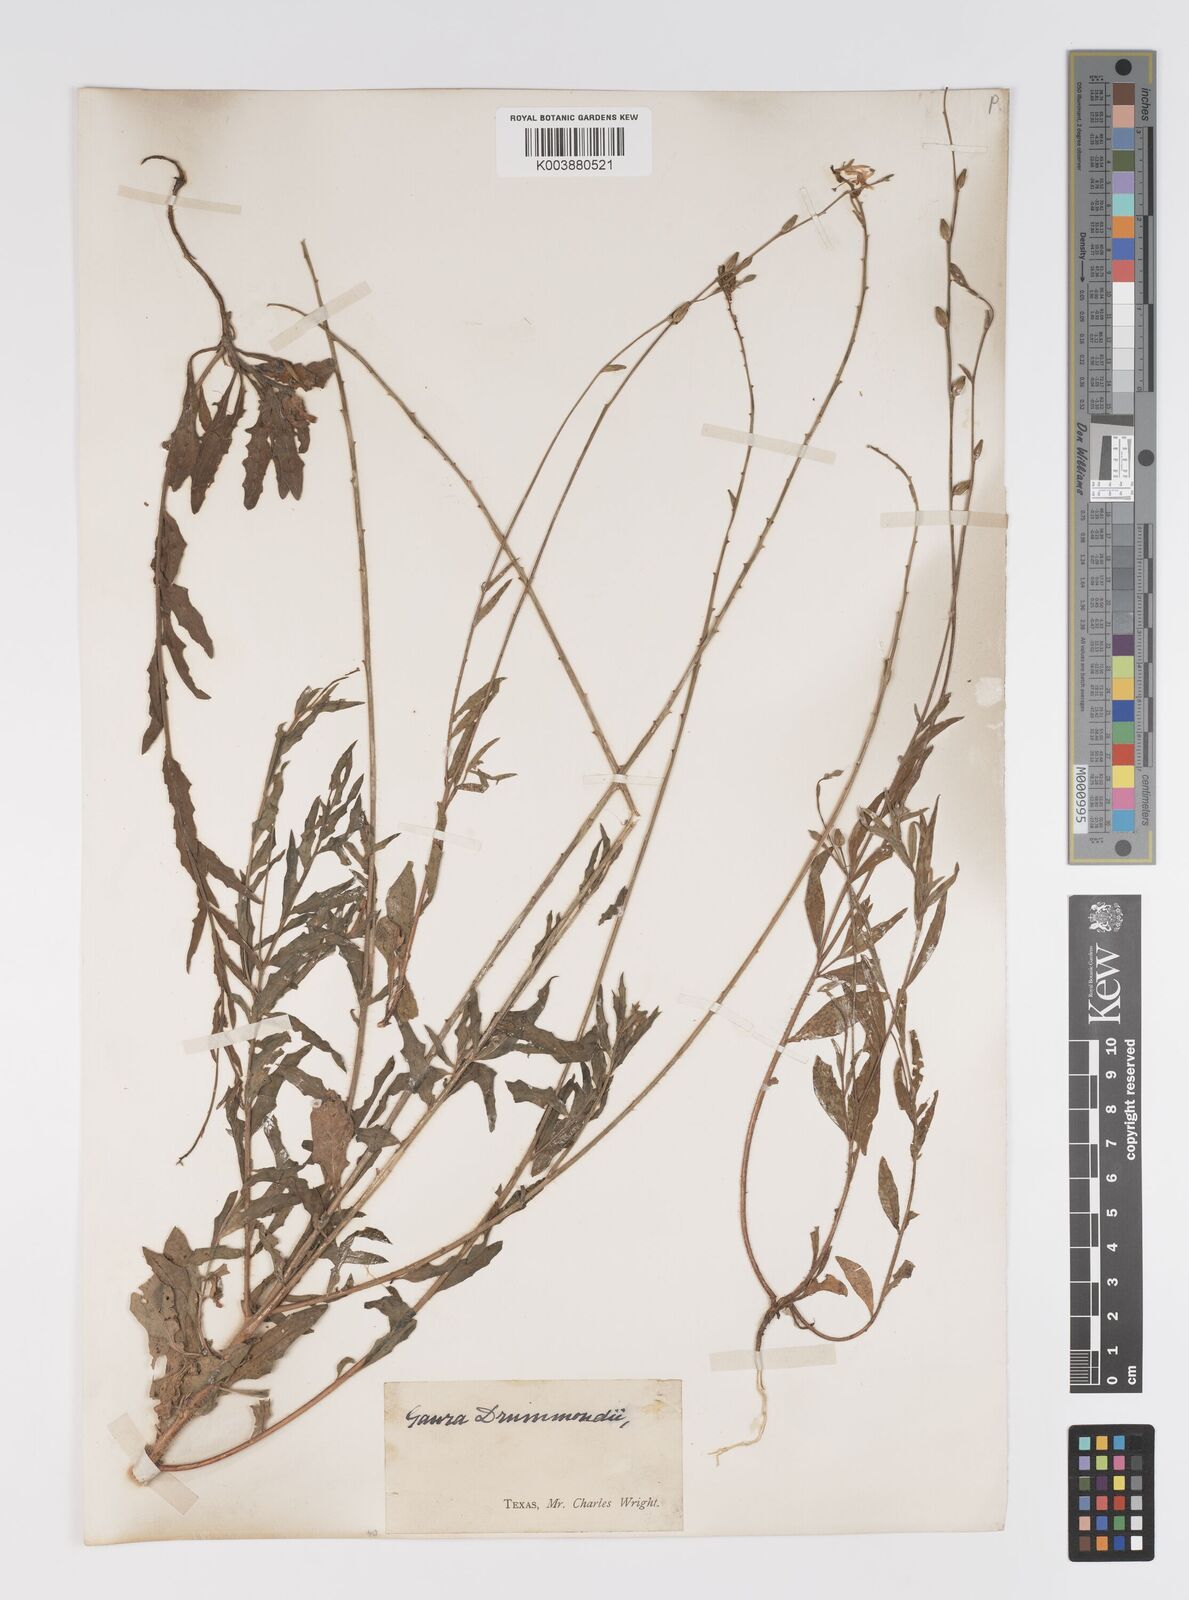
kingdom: Plantae
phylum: Tracheophyta
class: Magnoliopsida
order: Myrtales
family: Onagraceae
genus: Oenothera
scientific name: Oenothera hispida
